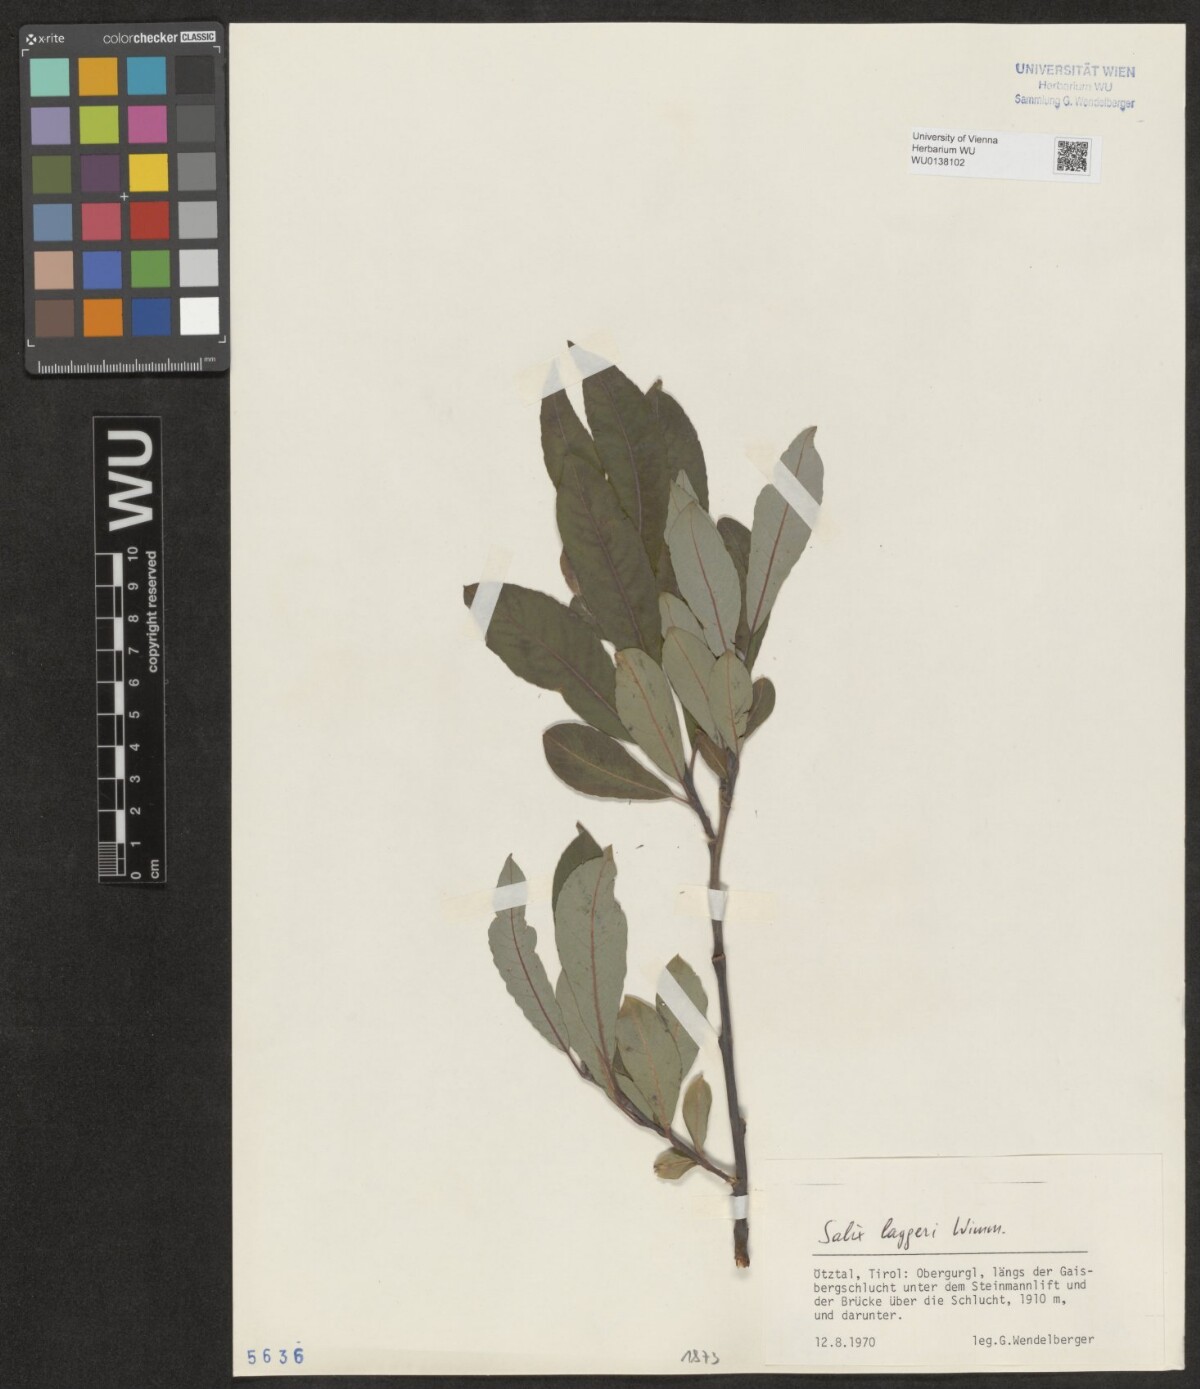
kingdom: Plantae
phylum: Tracheophyta
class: Magnoliopsida
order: Malpighiales
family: Salicaceae
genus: Salix
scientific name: Salix laggeri
